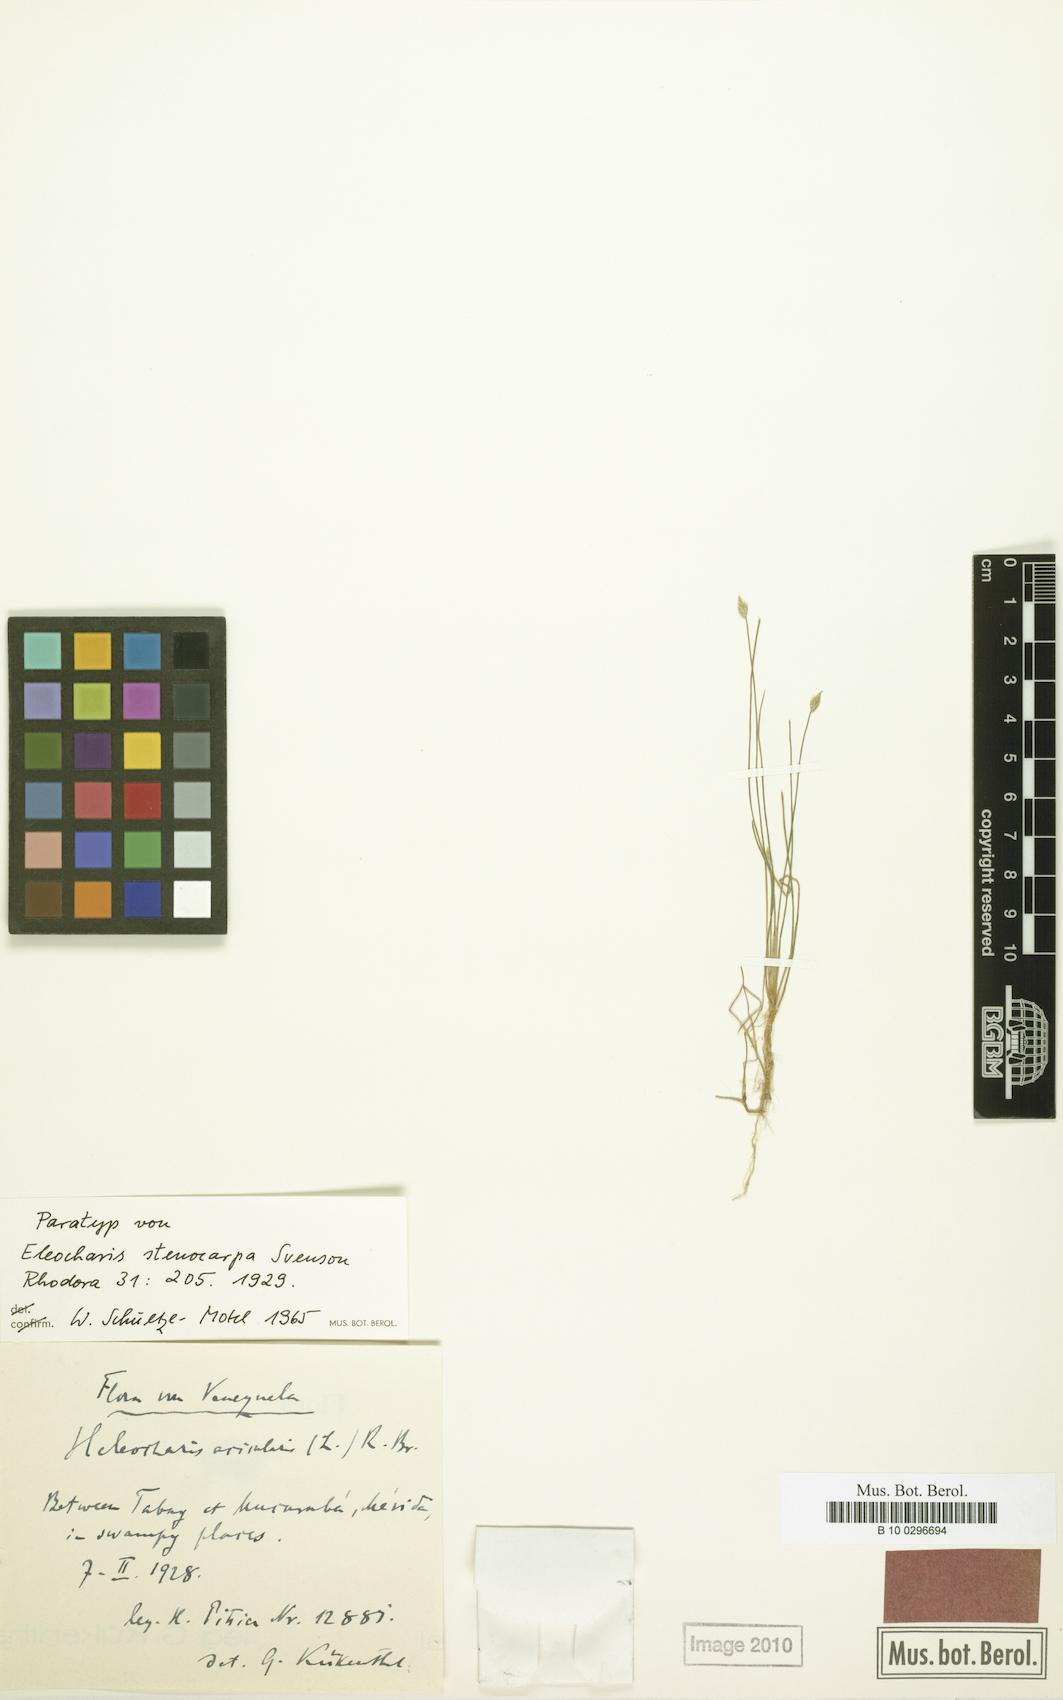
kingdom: Plantae
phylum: Tracheophyta
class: Liliopsida
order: Poales
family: Cyperaceae
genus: Eleocharis
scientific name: Eleocharis stenocarpa
